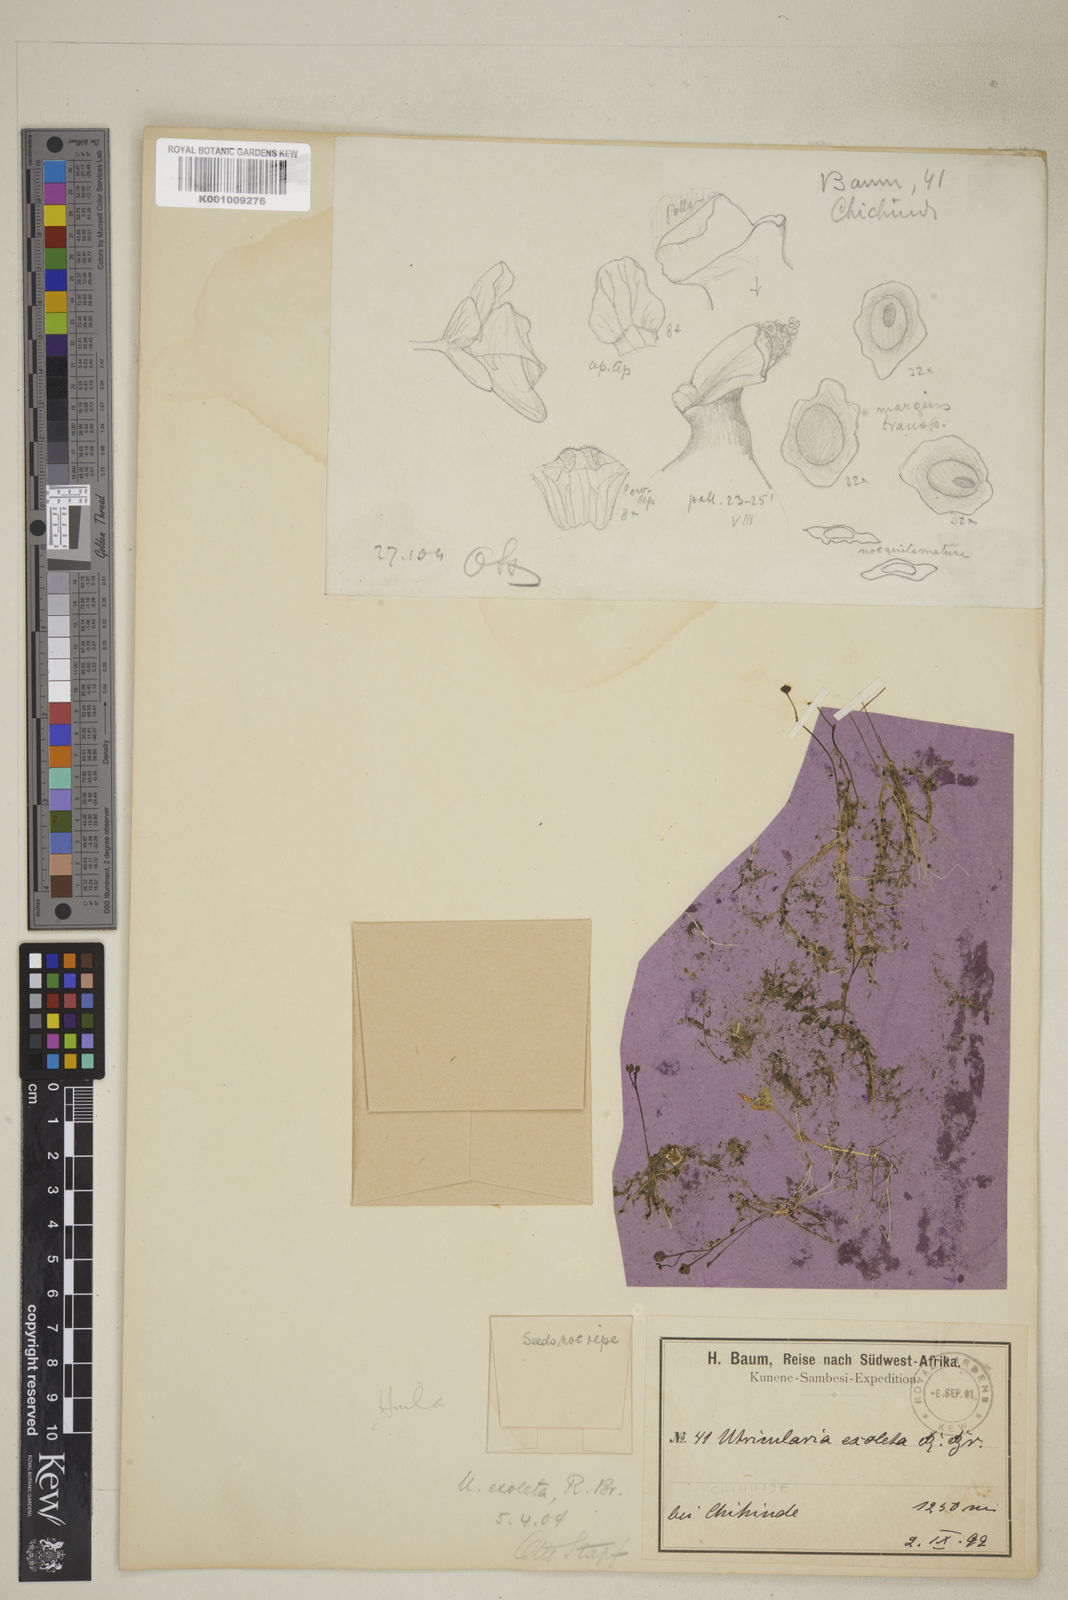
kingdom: Plantae
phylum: Tracheophyta
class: Magnoliopsida
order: Lamiales
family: Lentibulariaceae
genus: Utricularia
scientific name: Utricularia gibba
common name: Humped bladderwort
